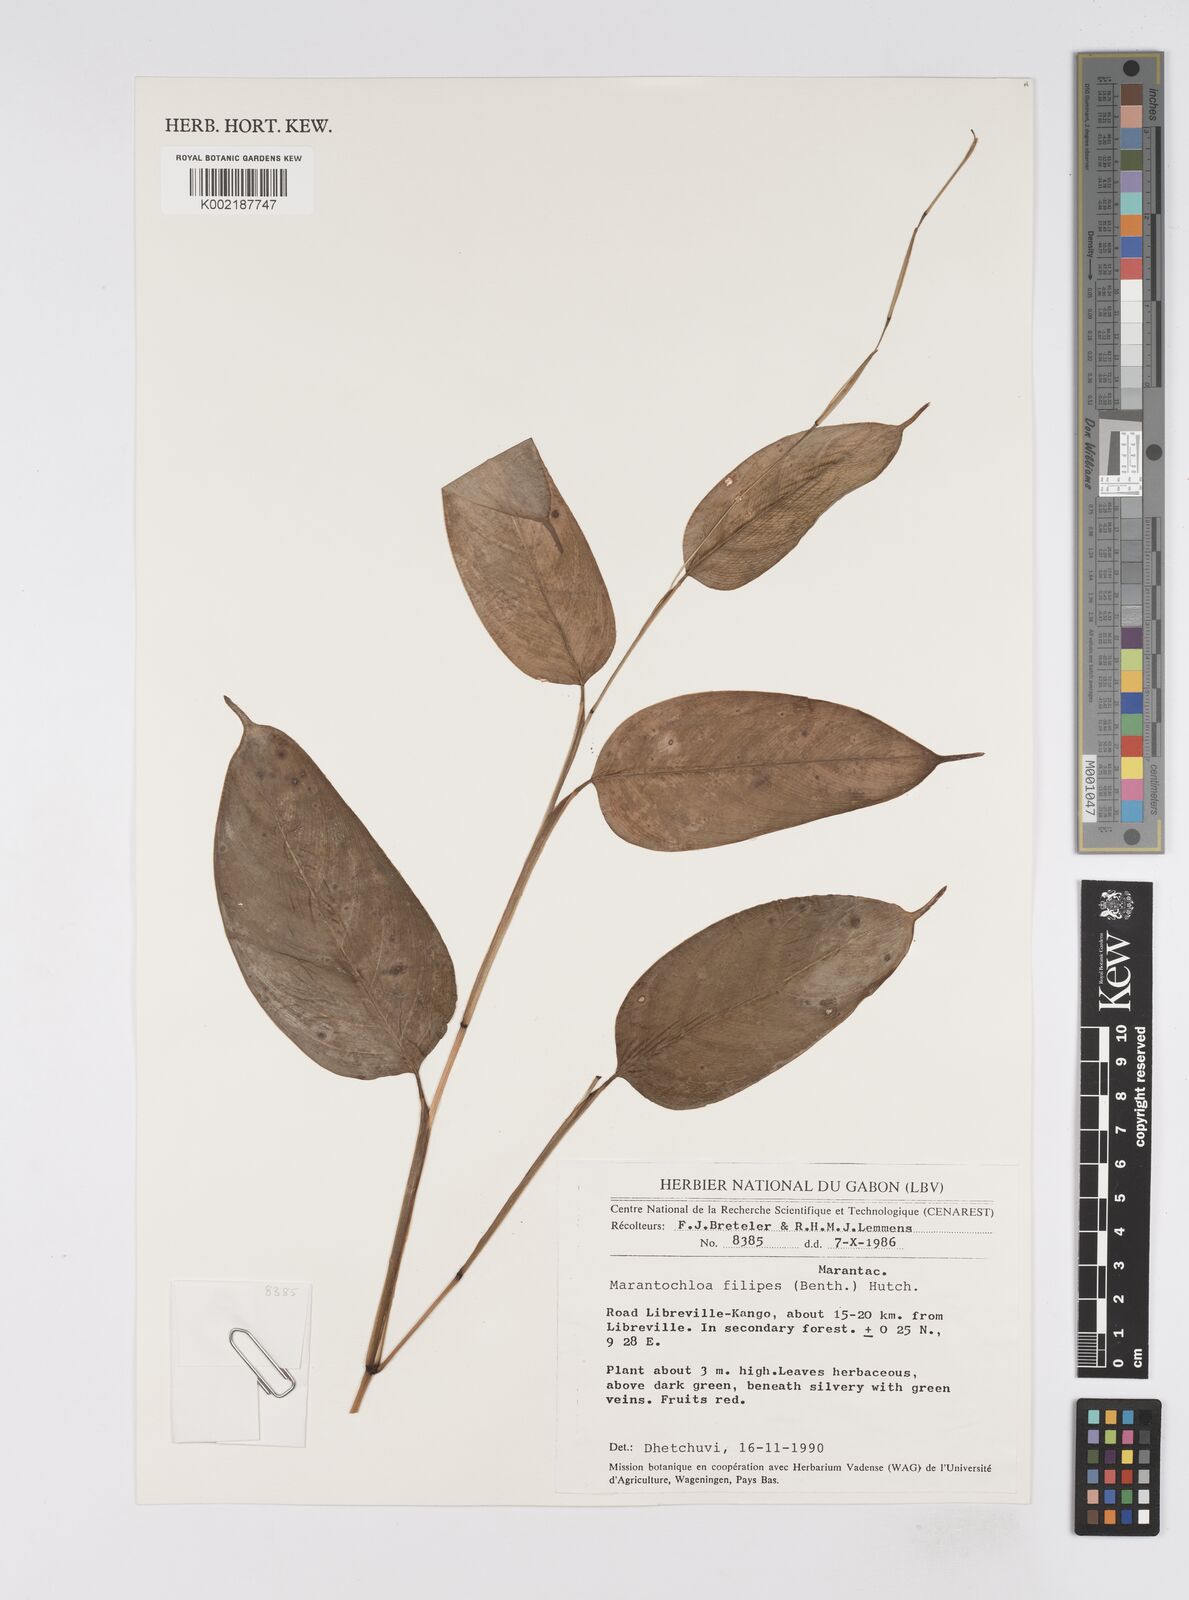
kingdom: Plantae
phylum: Tracheophyta
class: Liliopsida
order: Zingiberales
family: Marantaceae
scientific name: Marantaceae
